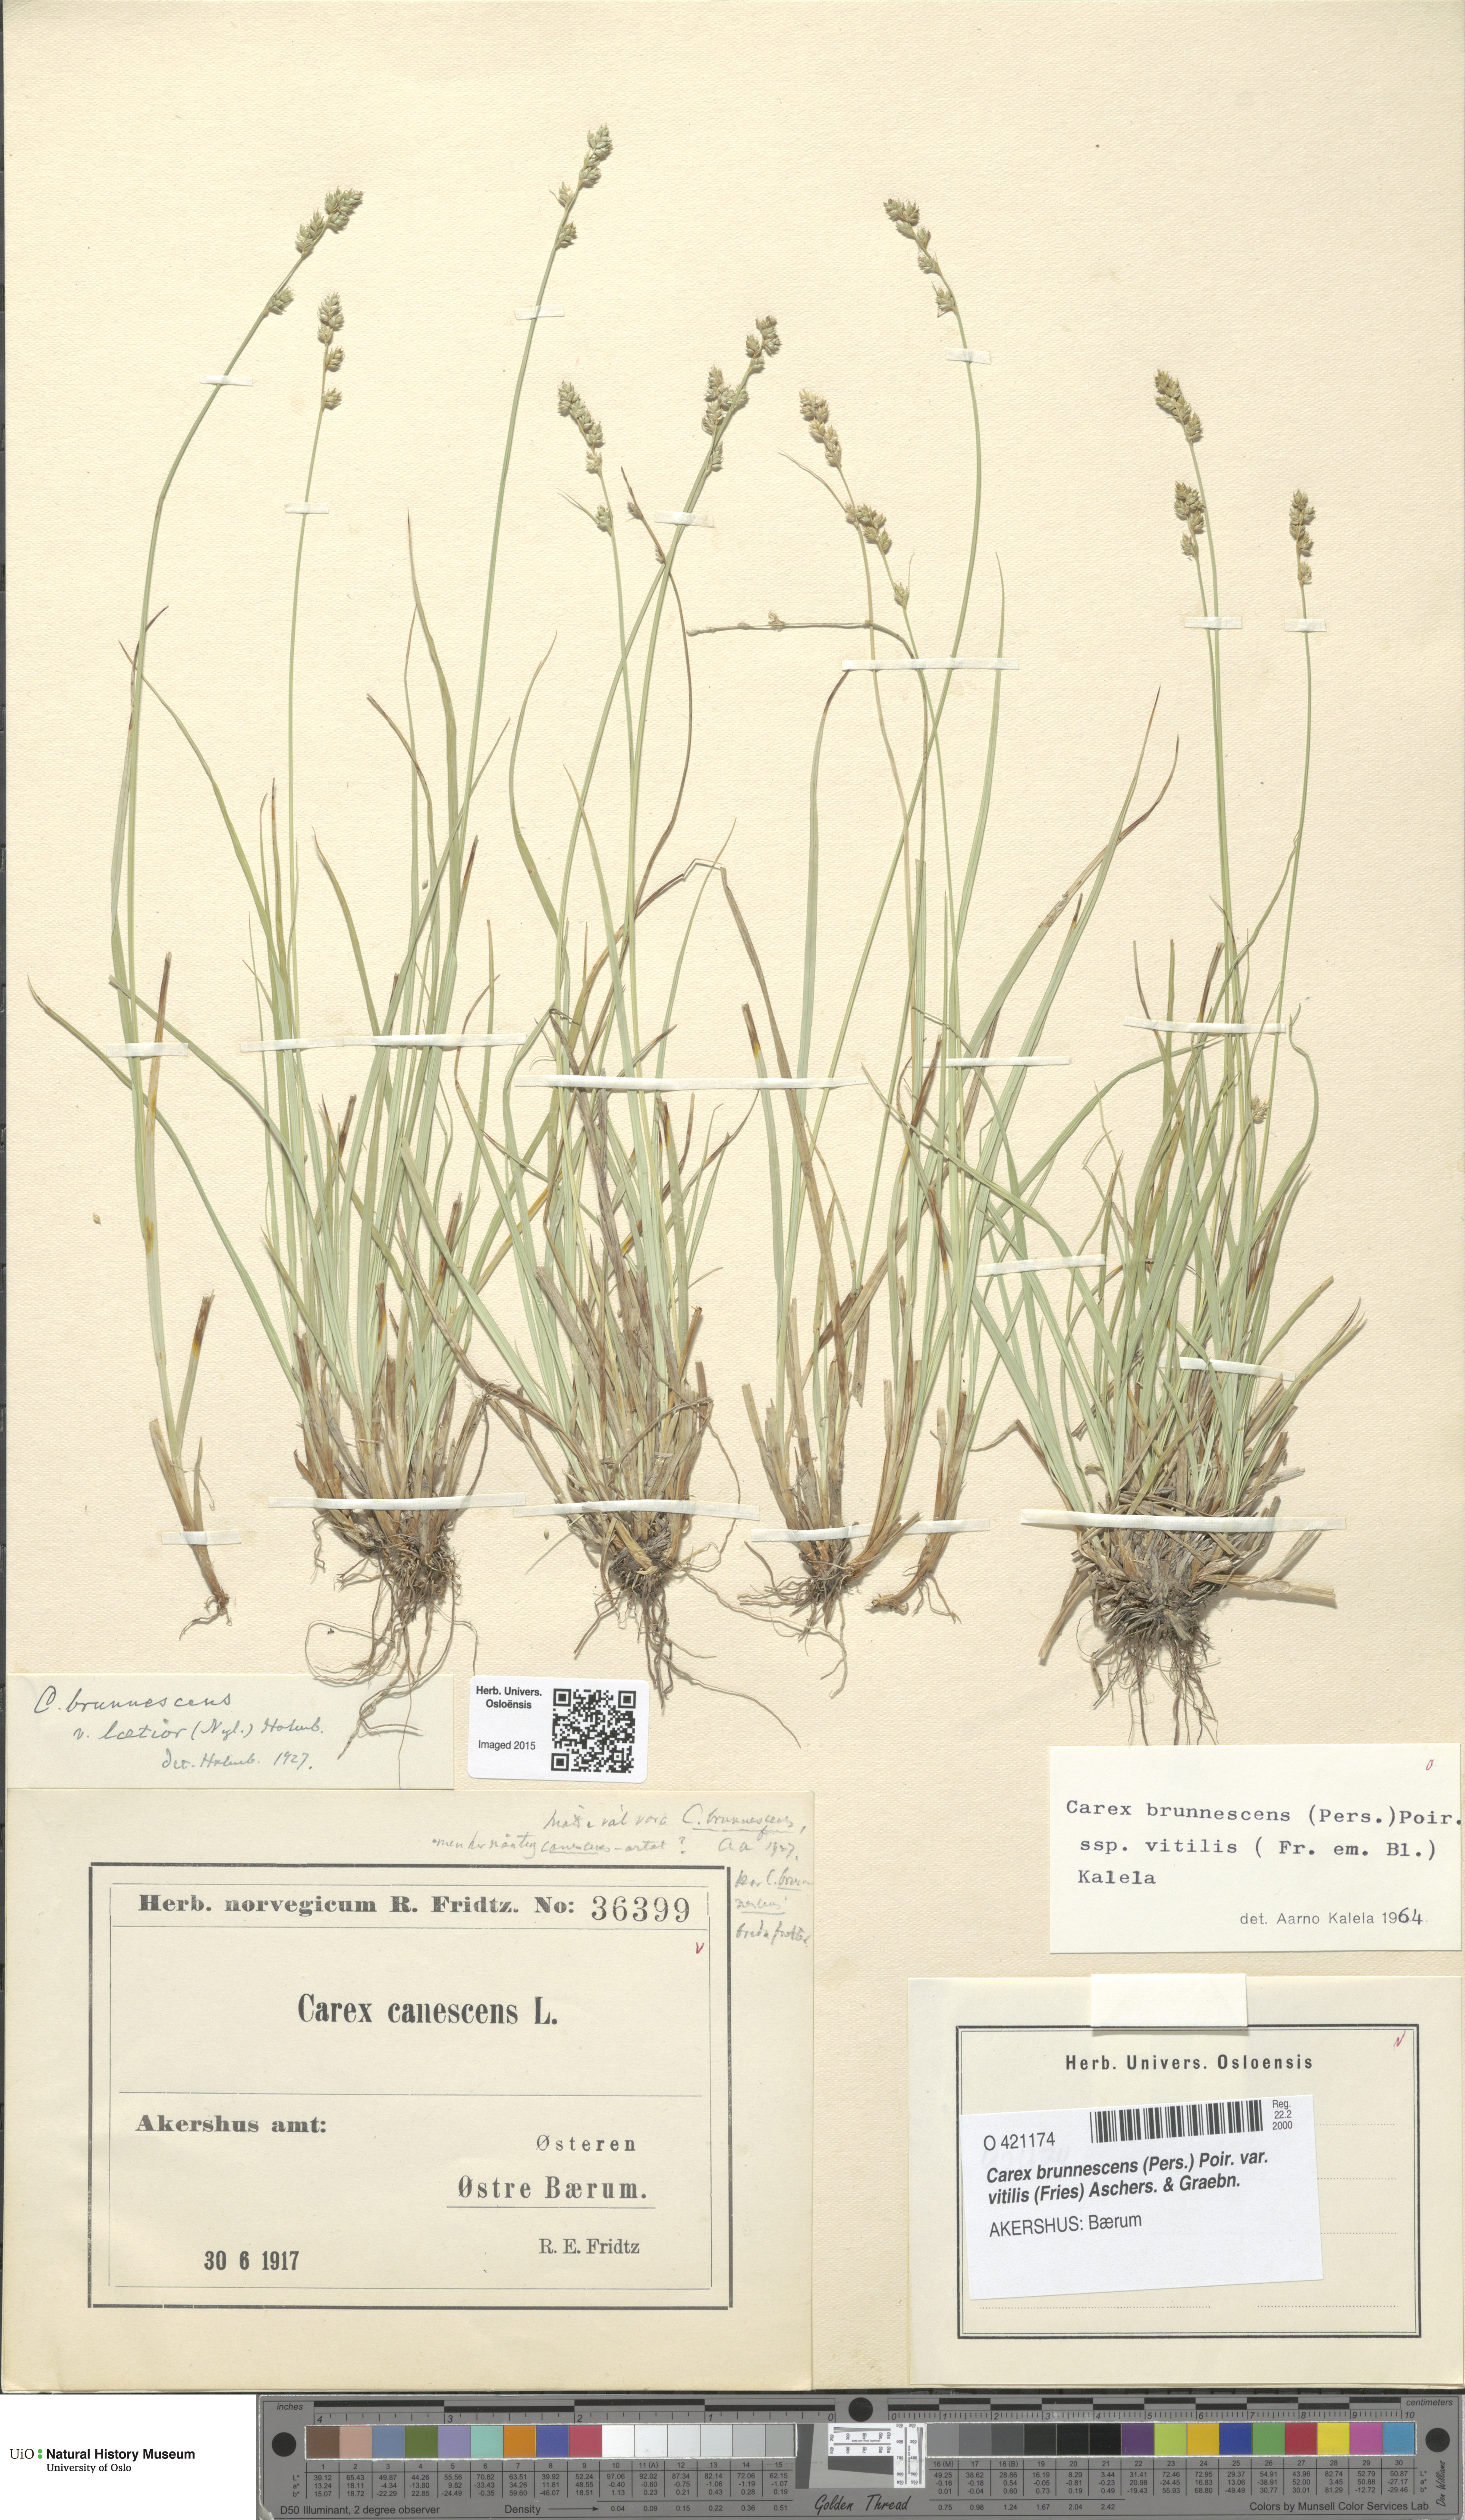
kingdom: Plantae
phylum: Tracheophyta
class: Liliopsida
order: Poales
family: Cyperaceae
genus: Carex
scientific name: Carex brunnescens
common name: Brown sedge
